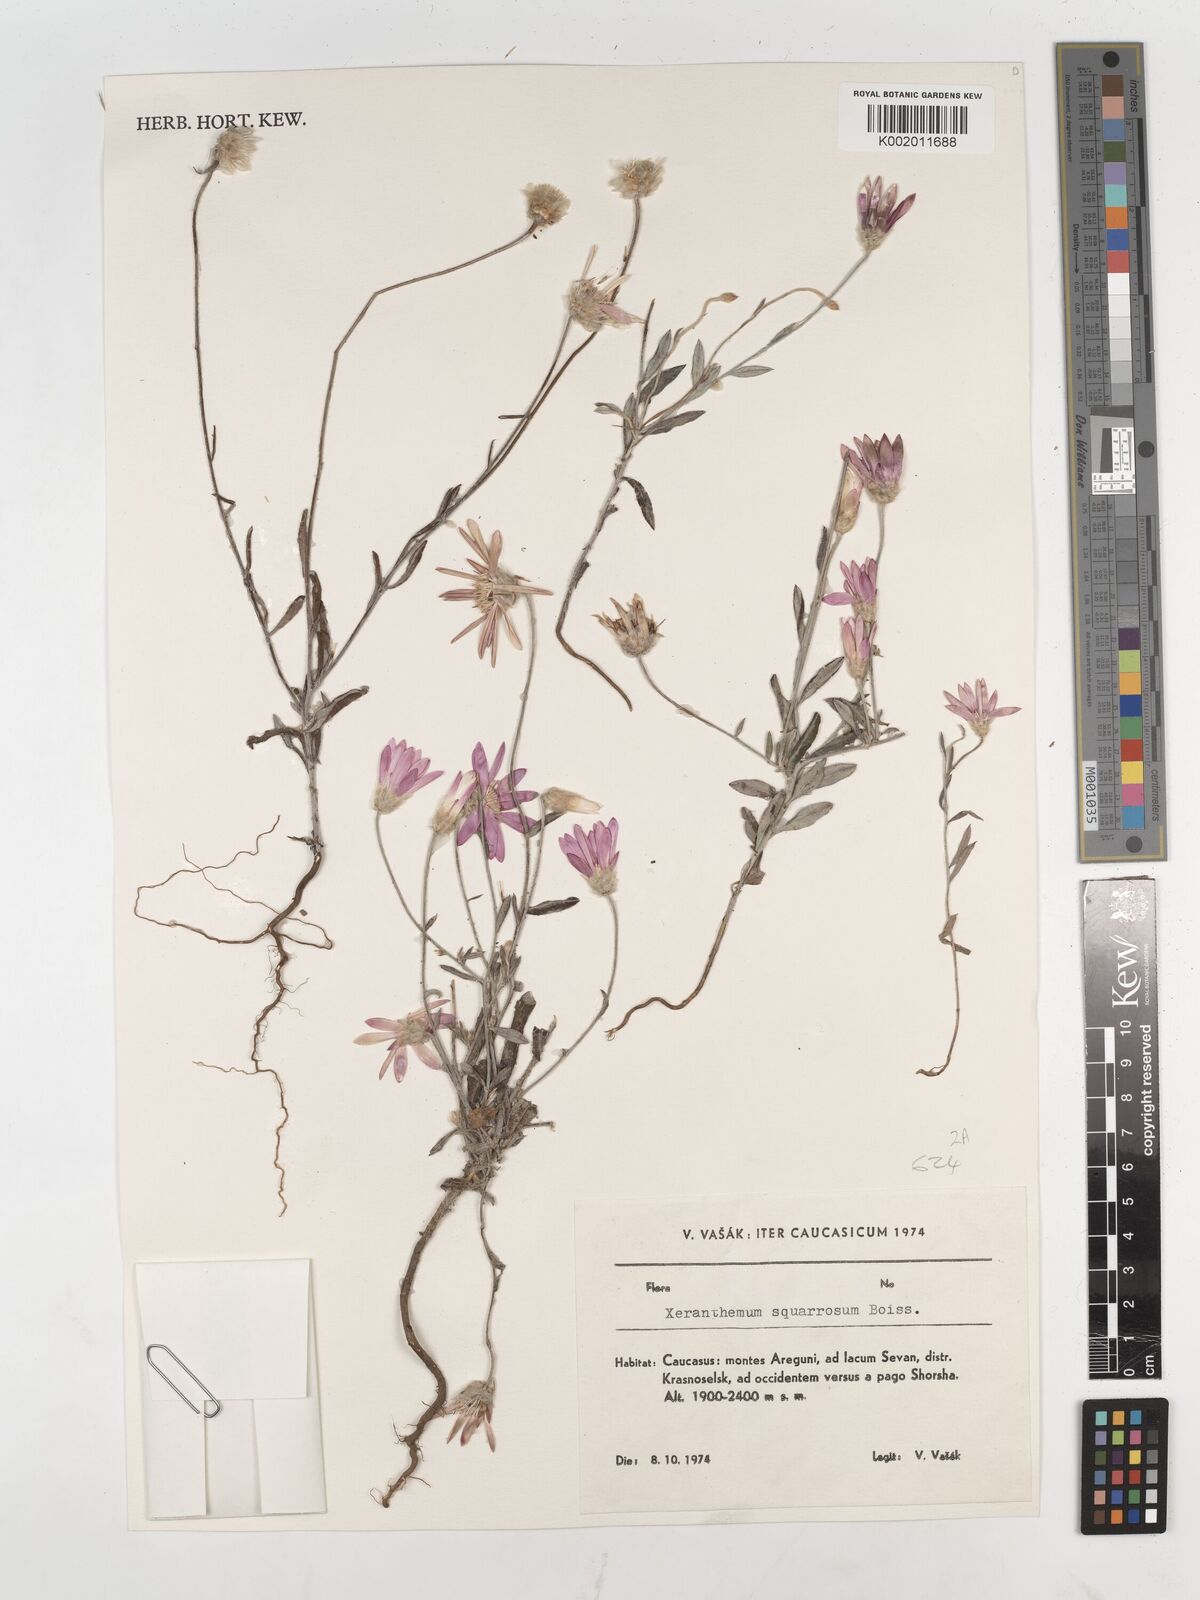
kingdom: Plantae
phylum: Tracheophyta
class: Magnoliopsida
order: Asterales
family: Asteraceae
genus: Xeranthemum
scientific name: Xeranthemum squarrosum
